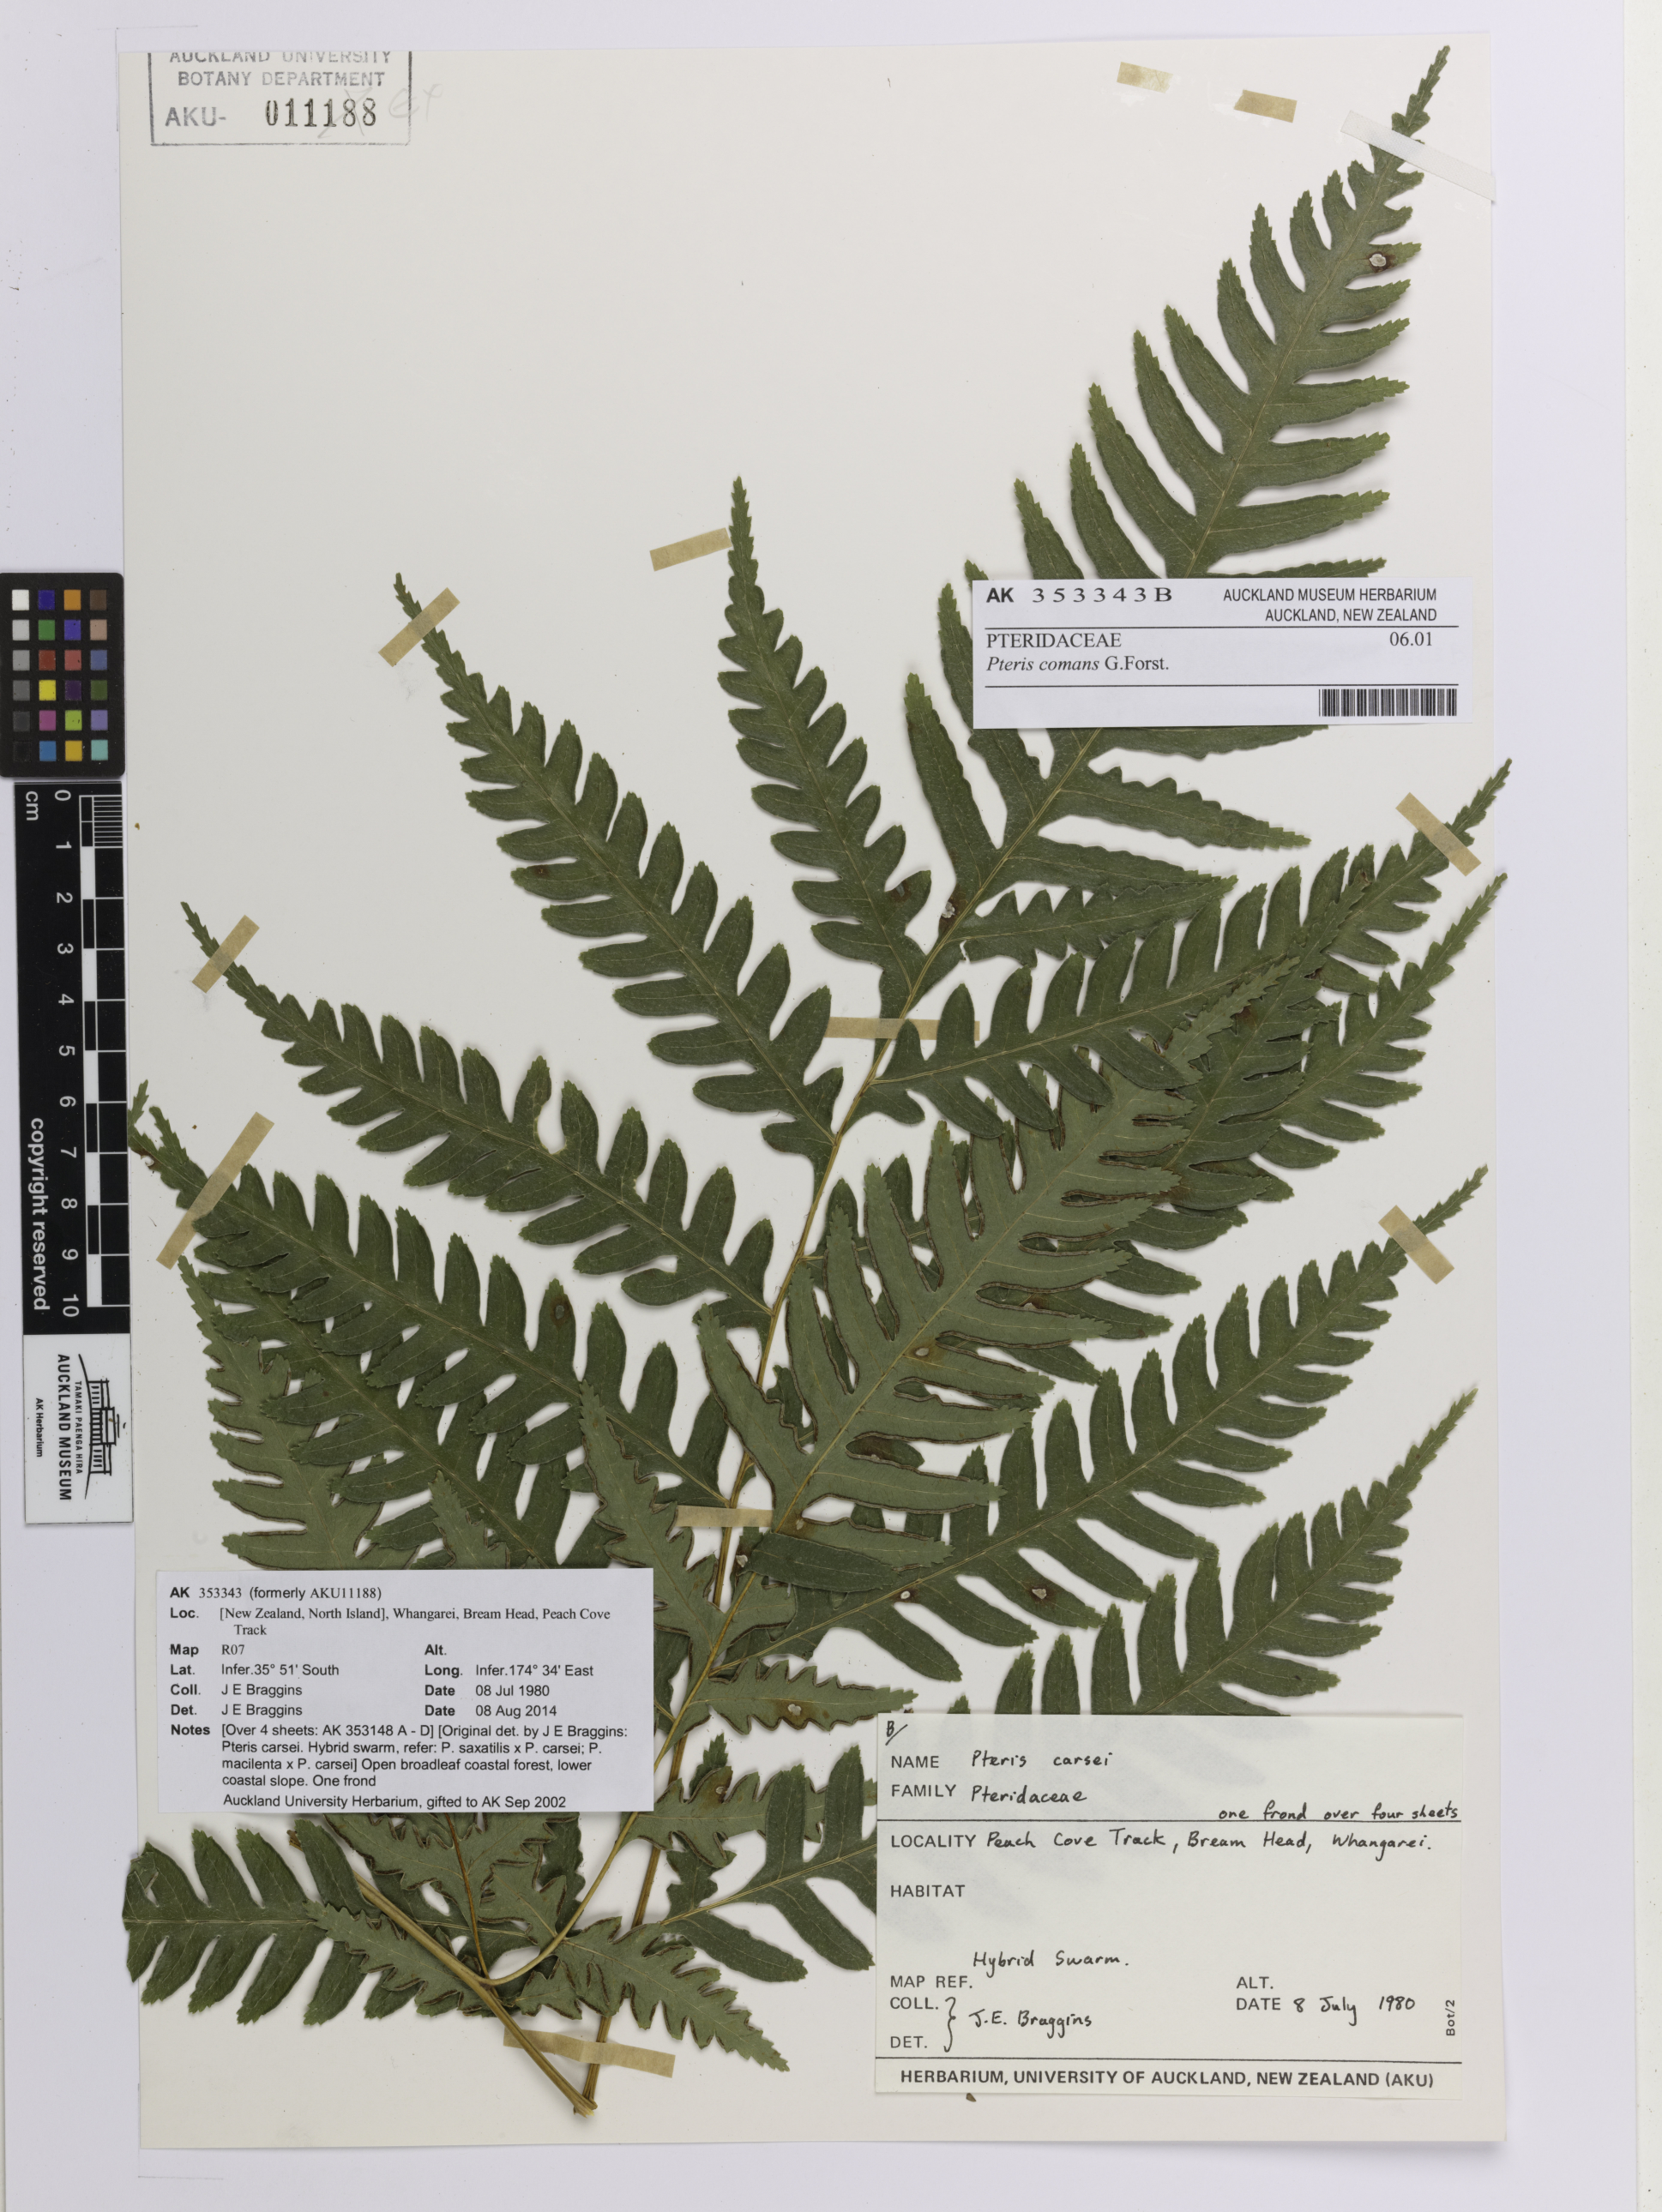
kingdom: Plantae
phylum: Tracheophyta
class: Polypodiopsida
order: Polypodiales
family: Pteridaceae
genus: Pteris
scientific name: Pteris comans
